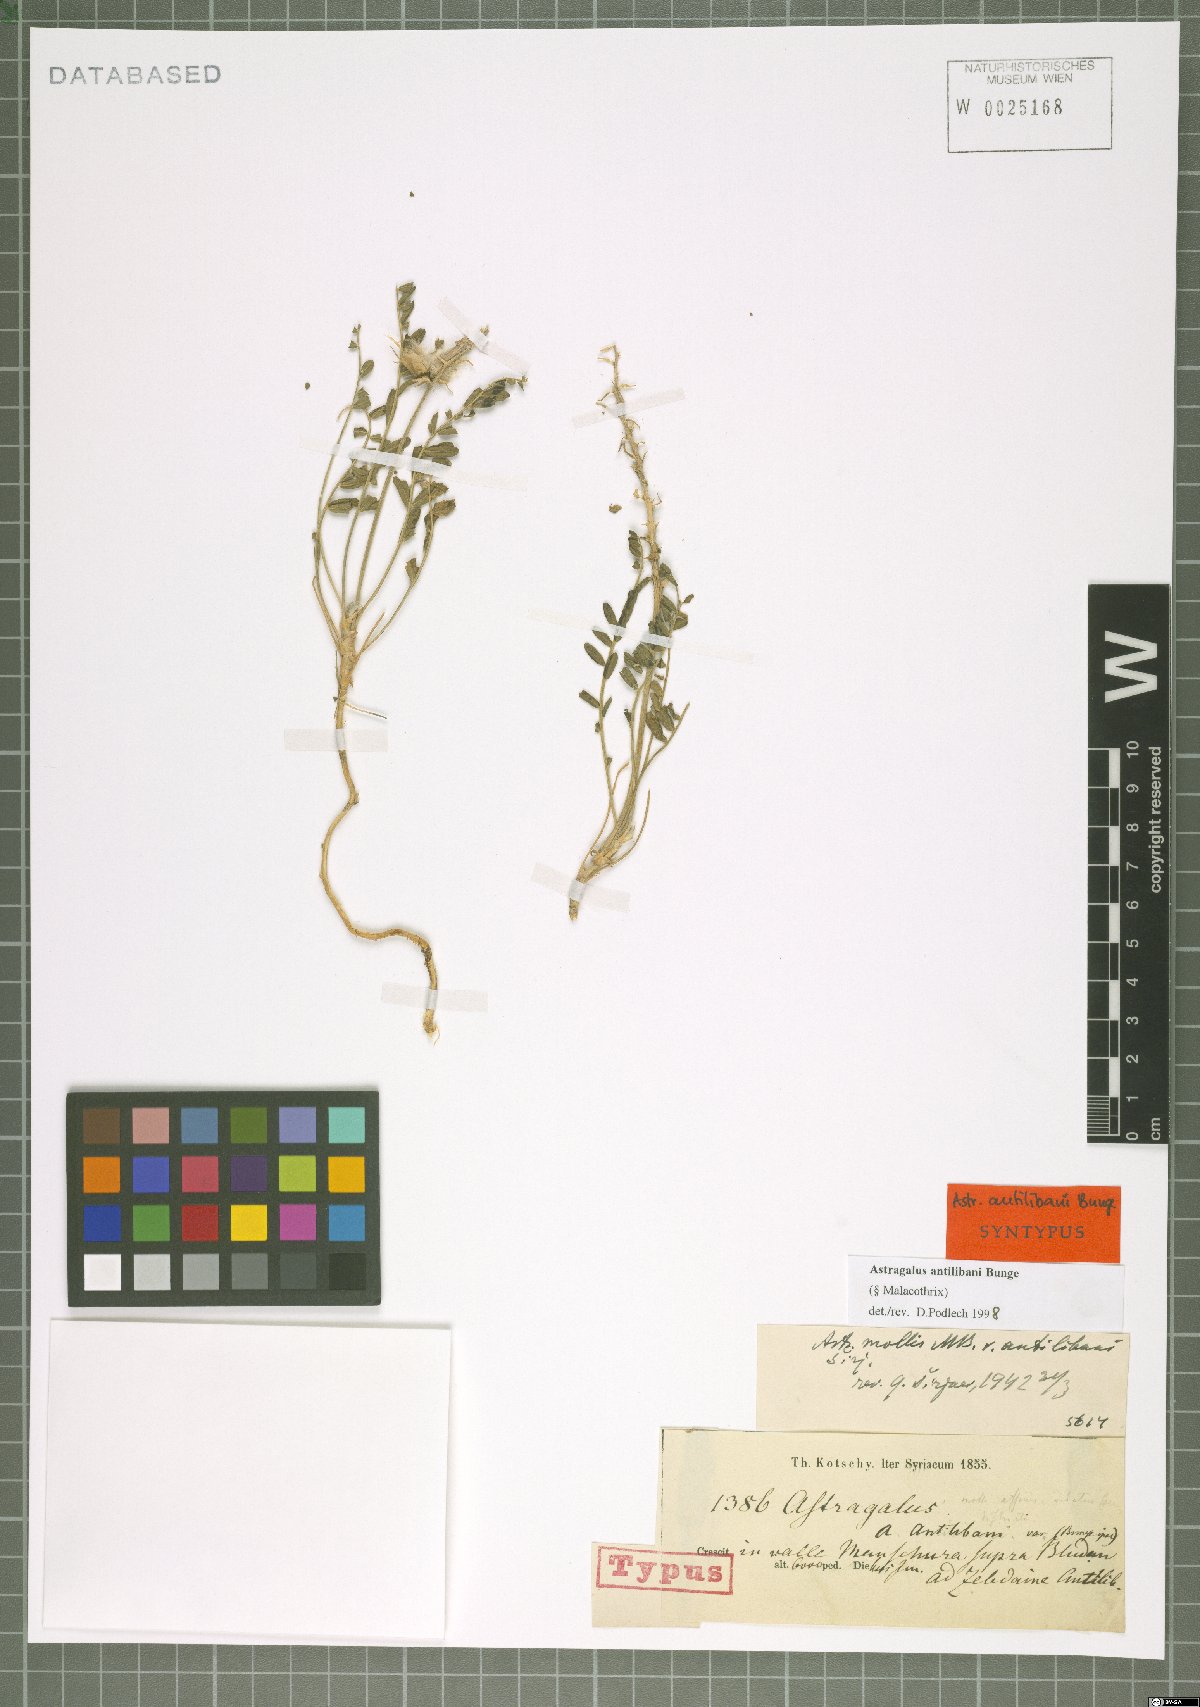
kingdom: Plantae
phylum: Tracheophyta
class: Magnoliopsida
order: Fabales
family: Fabaceae
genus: Astragalus
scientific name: Astragalus antilibani
